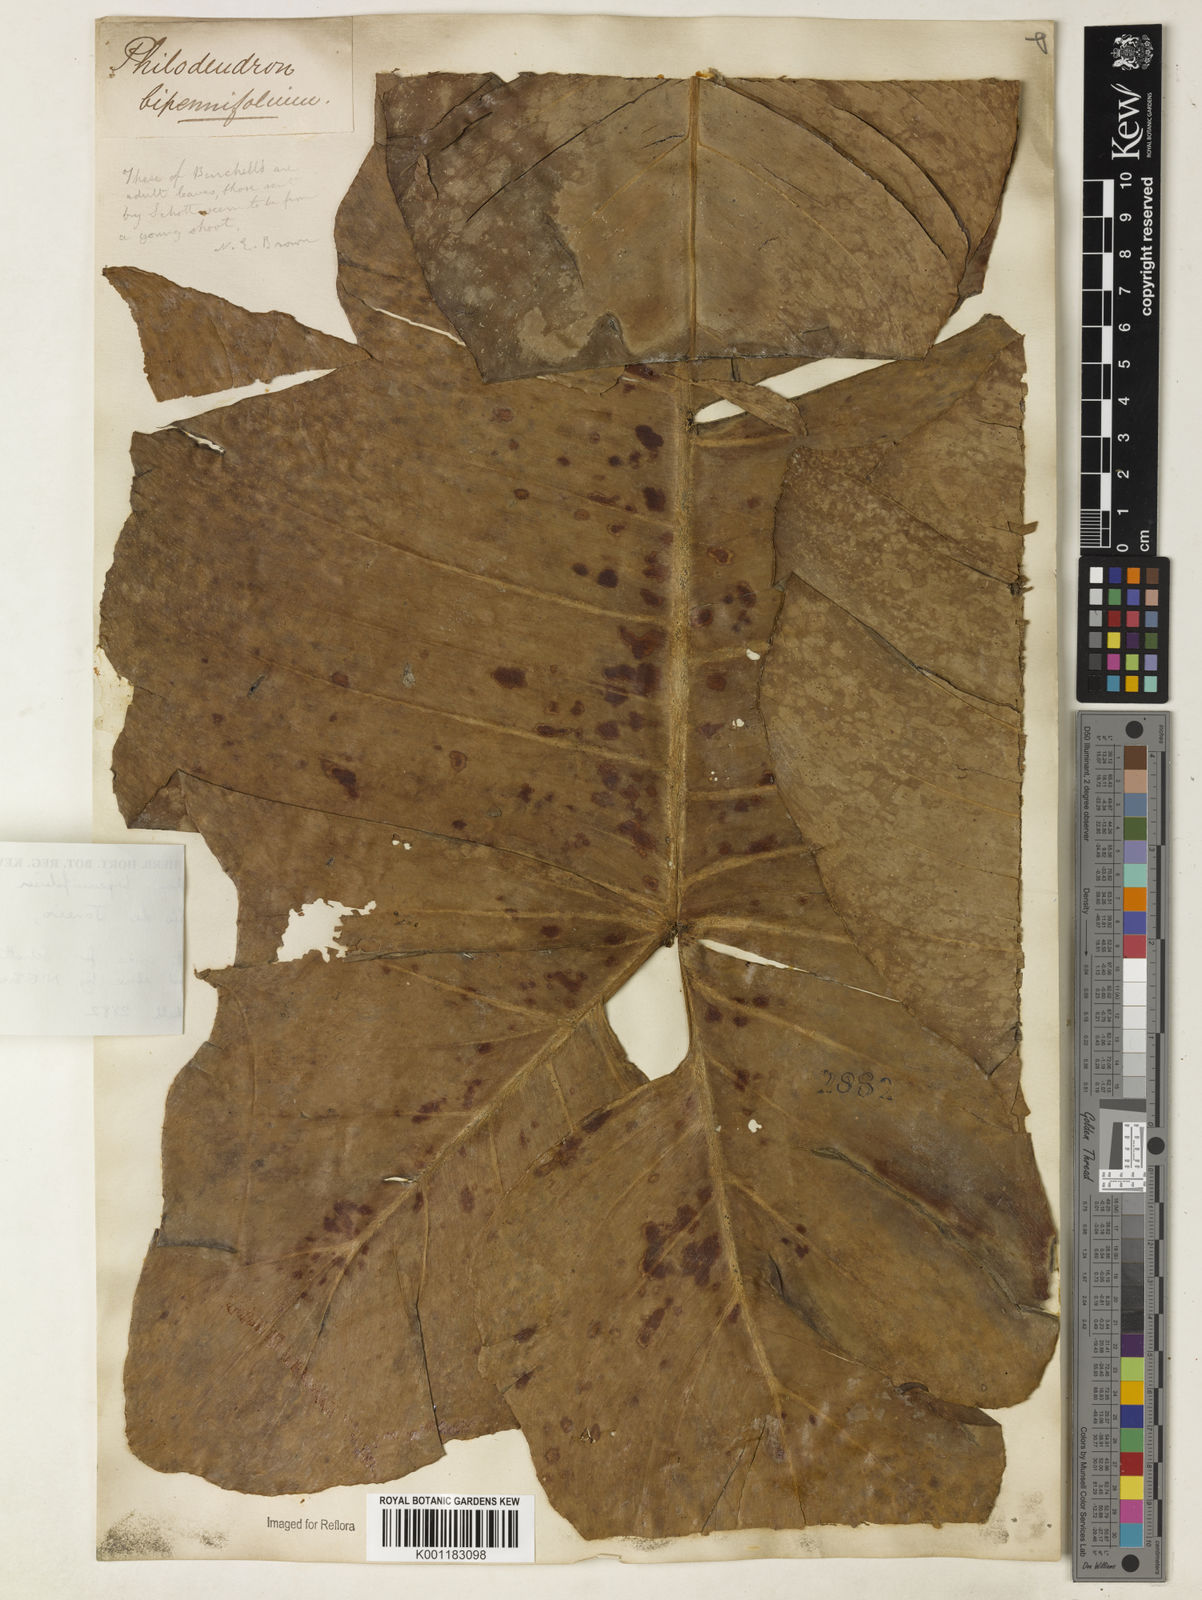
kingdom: Plantae
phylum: Tracheophyta
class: Liliopsida
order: Alismatales
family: Araceae
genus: Philodendron
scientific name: Philodendron bipennifolium
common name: Fiddle-leaf philodendron
